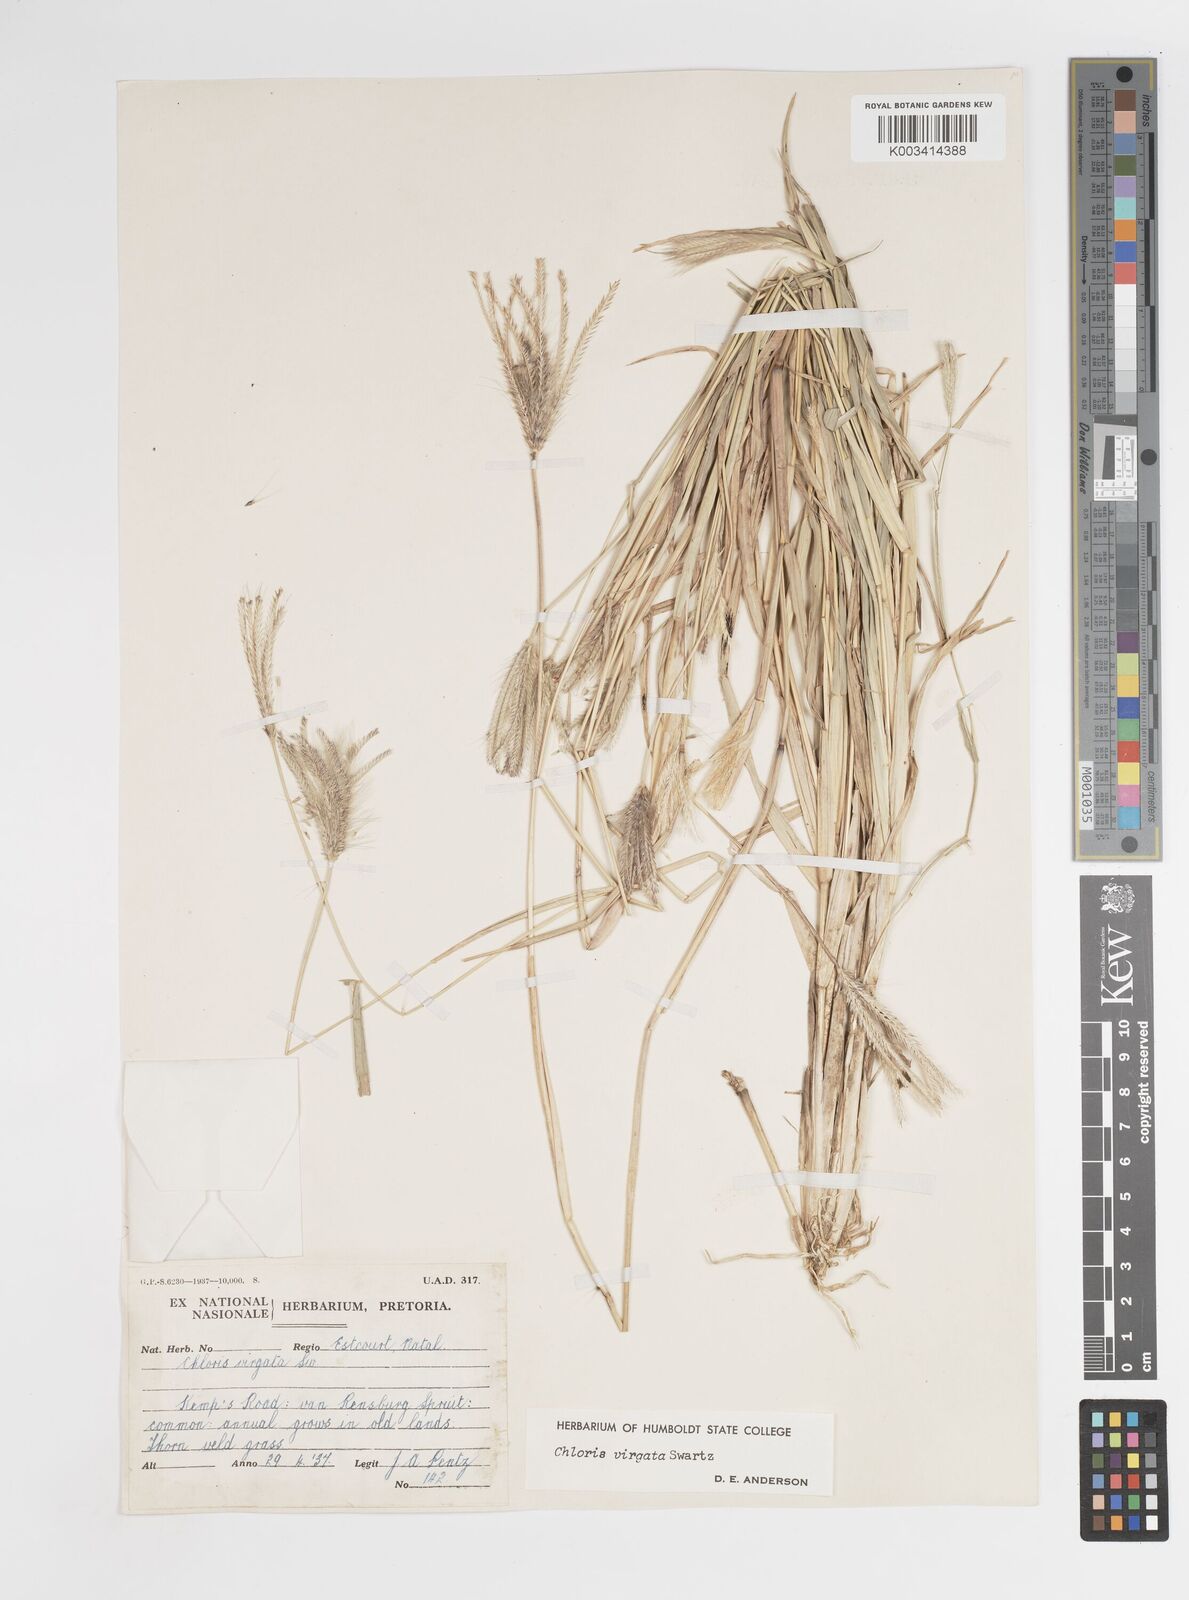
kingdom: Plantae
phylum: Tracheophyta
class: Liliopsida
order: Poales
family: Poaceae
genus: Chloris
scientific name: Chloris virgata
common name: Feathery rhodes-grass
